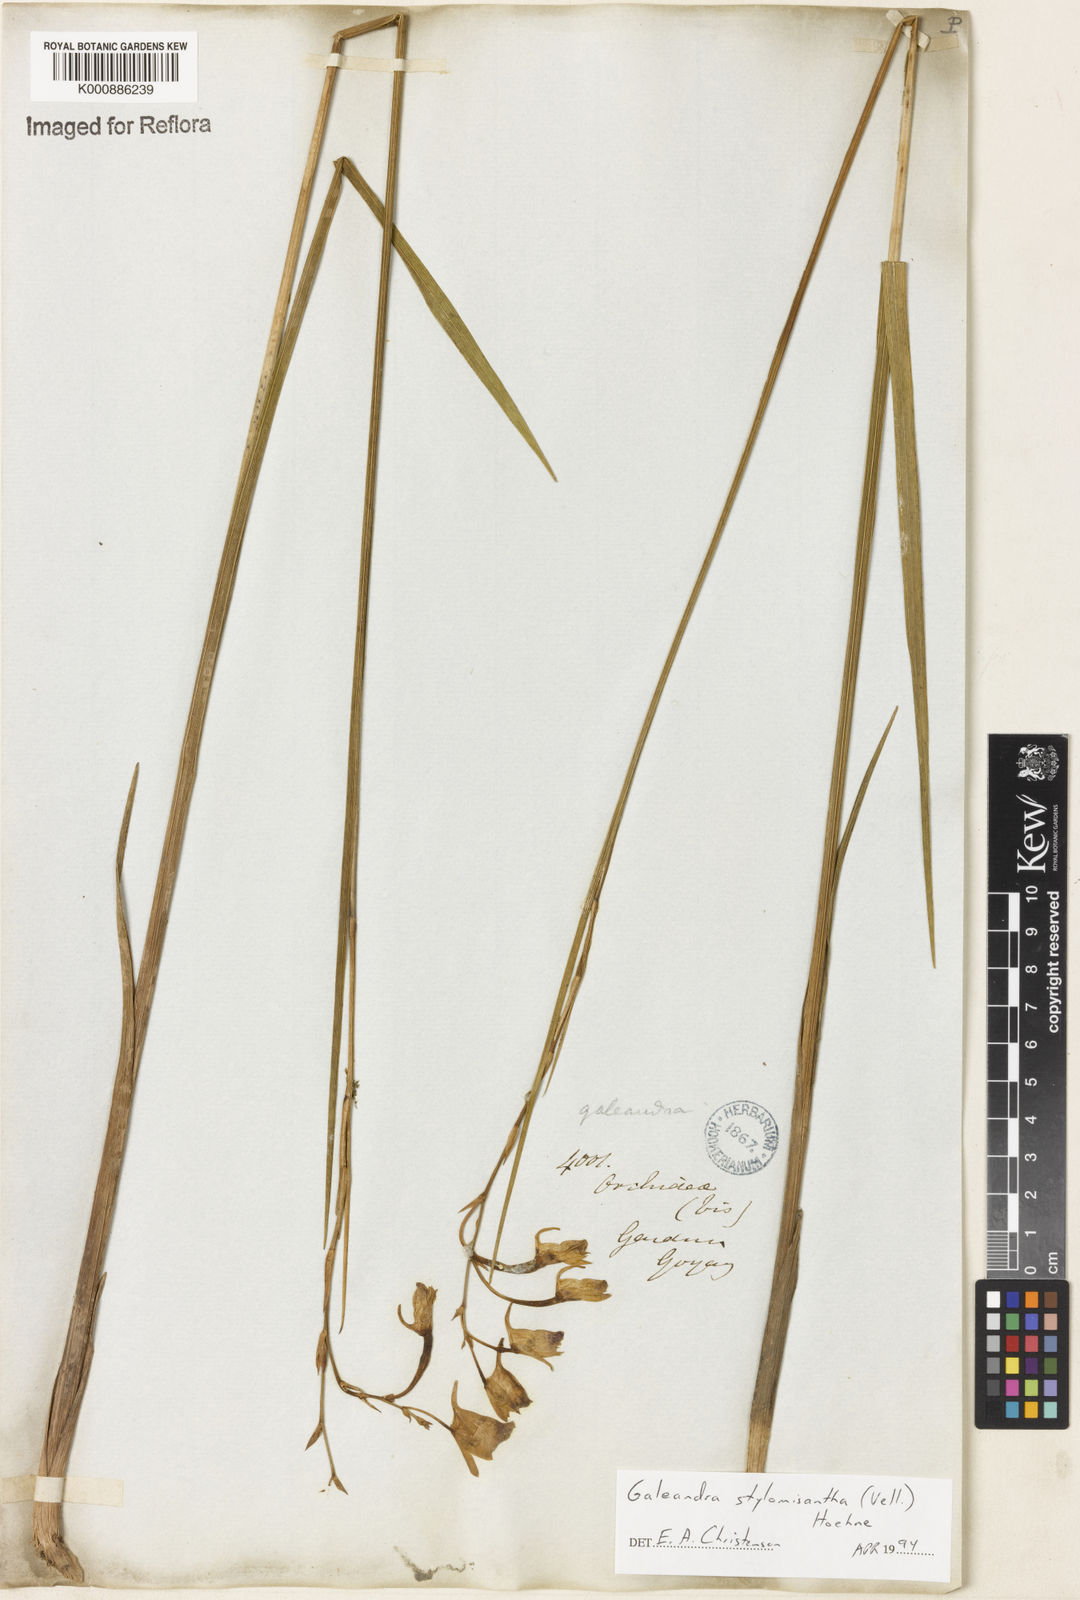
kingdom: Plantae
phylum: Tracheophyta
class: Liliopsida
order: Asparagales
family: Orchidaceae
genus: Galeandra
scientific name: Galeandra styllomisantha
